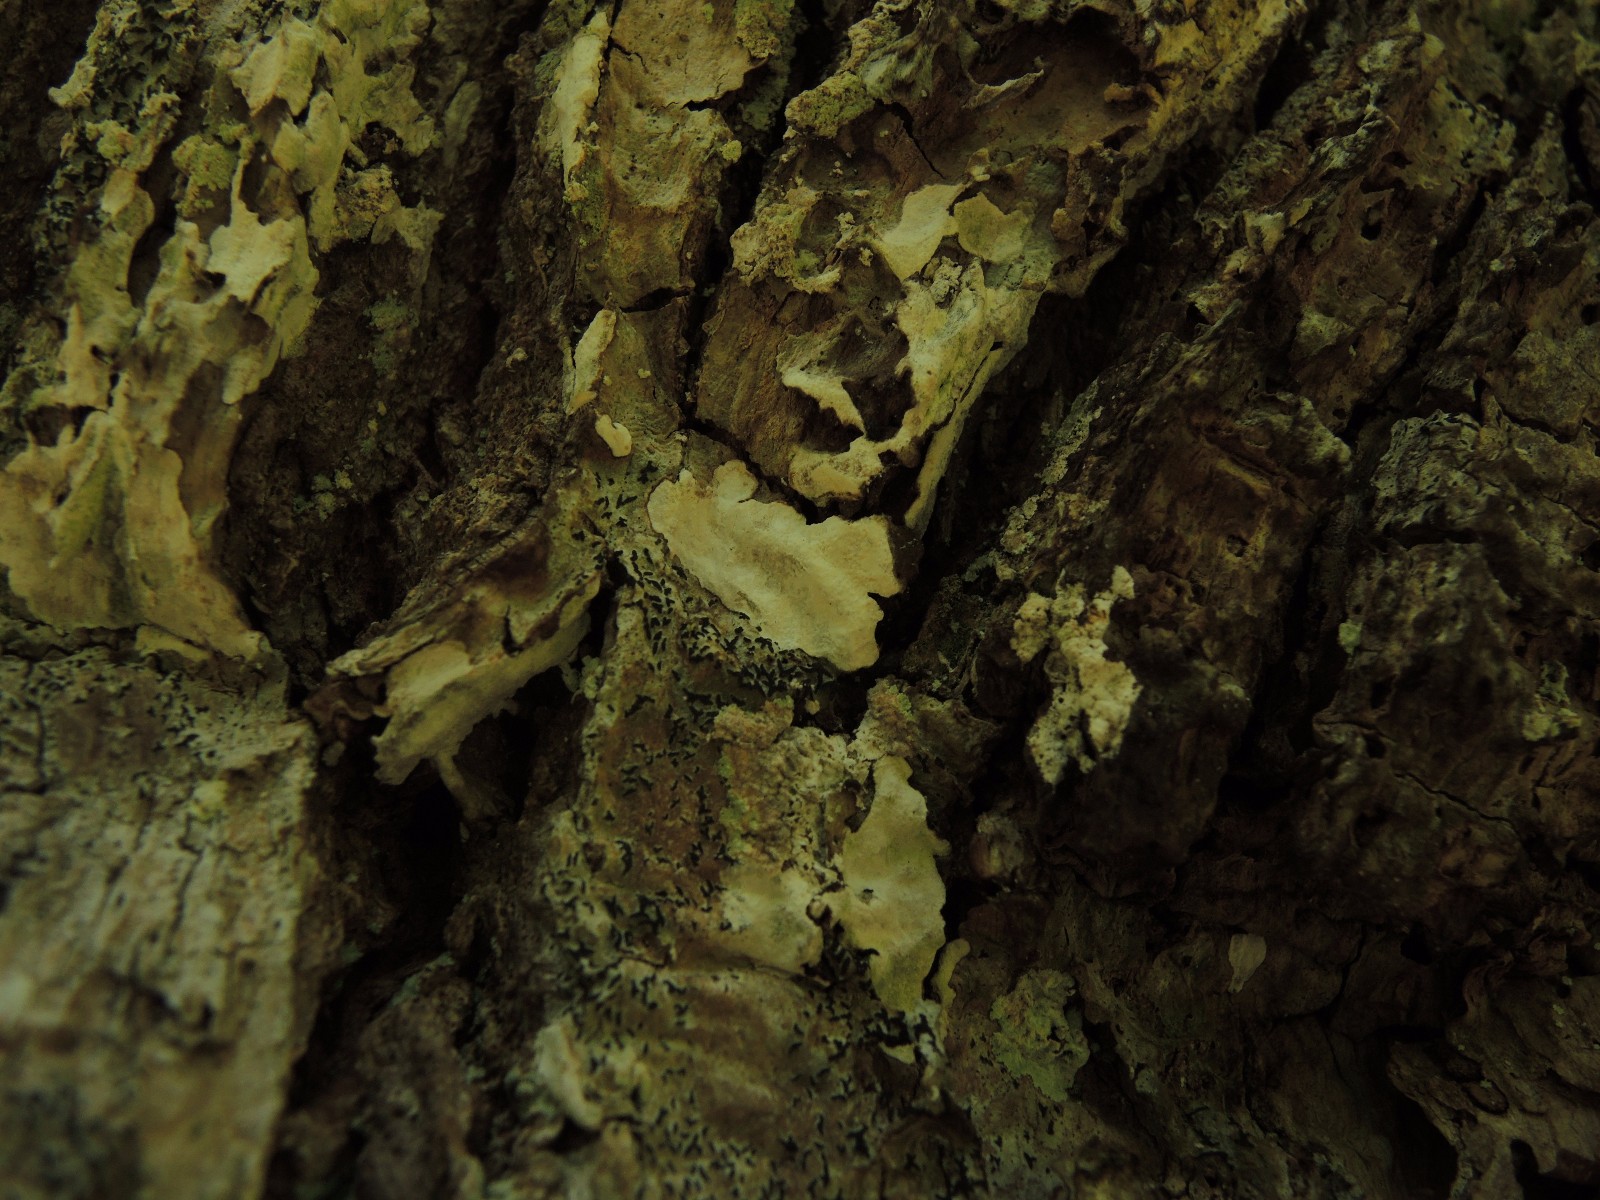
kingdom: Fungi
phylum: Basidiomycota
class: Agaricomycetes
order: Agaricales
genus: Dendrothele
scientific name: Dendrothele commixta
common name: ege-kalkplet
